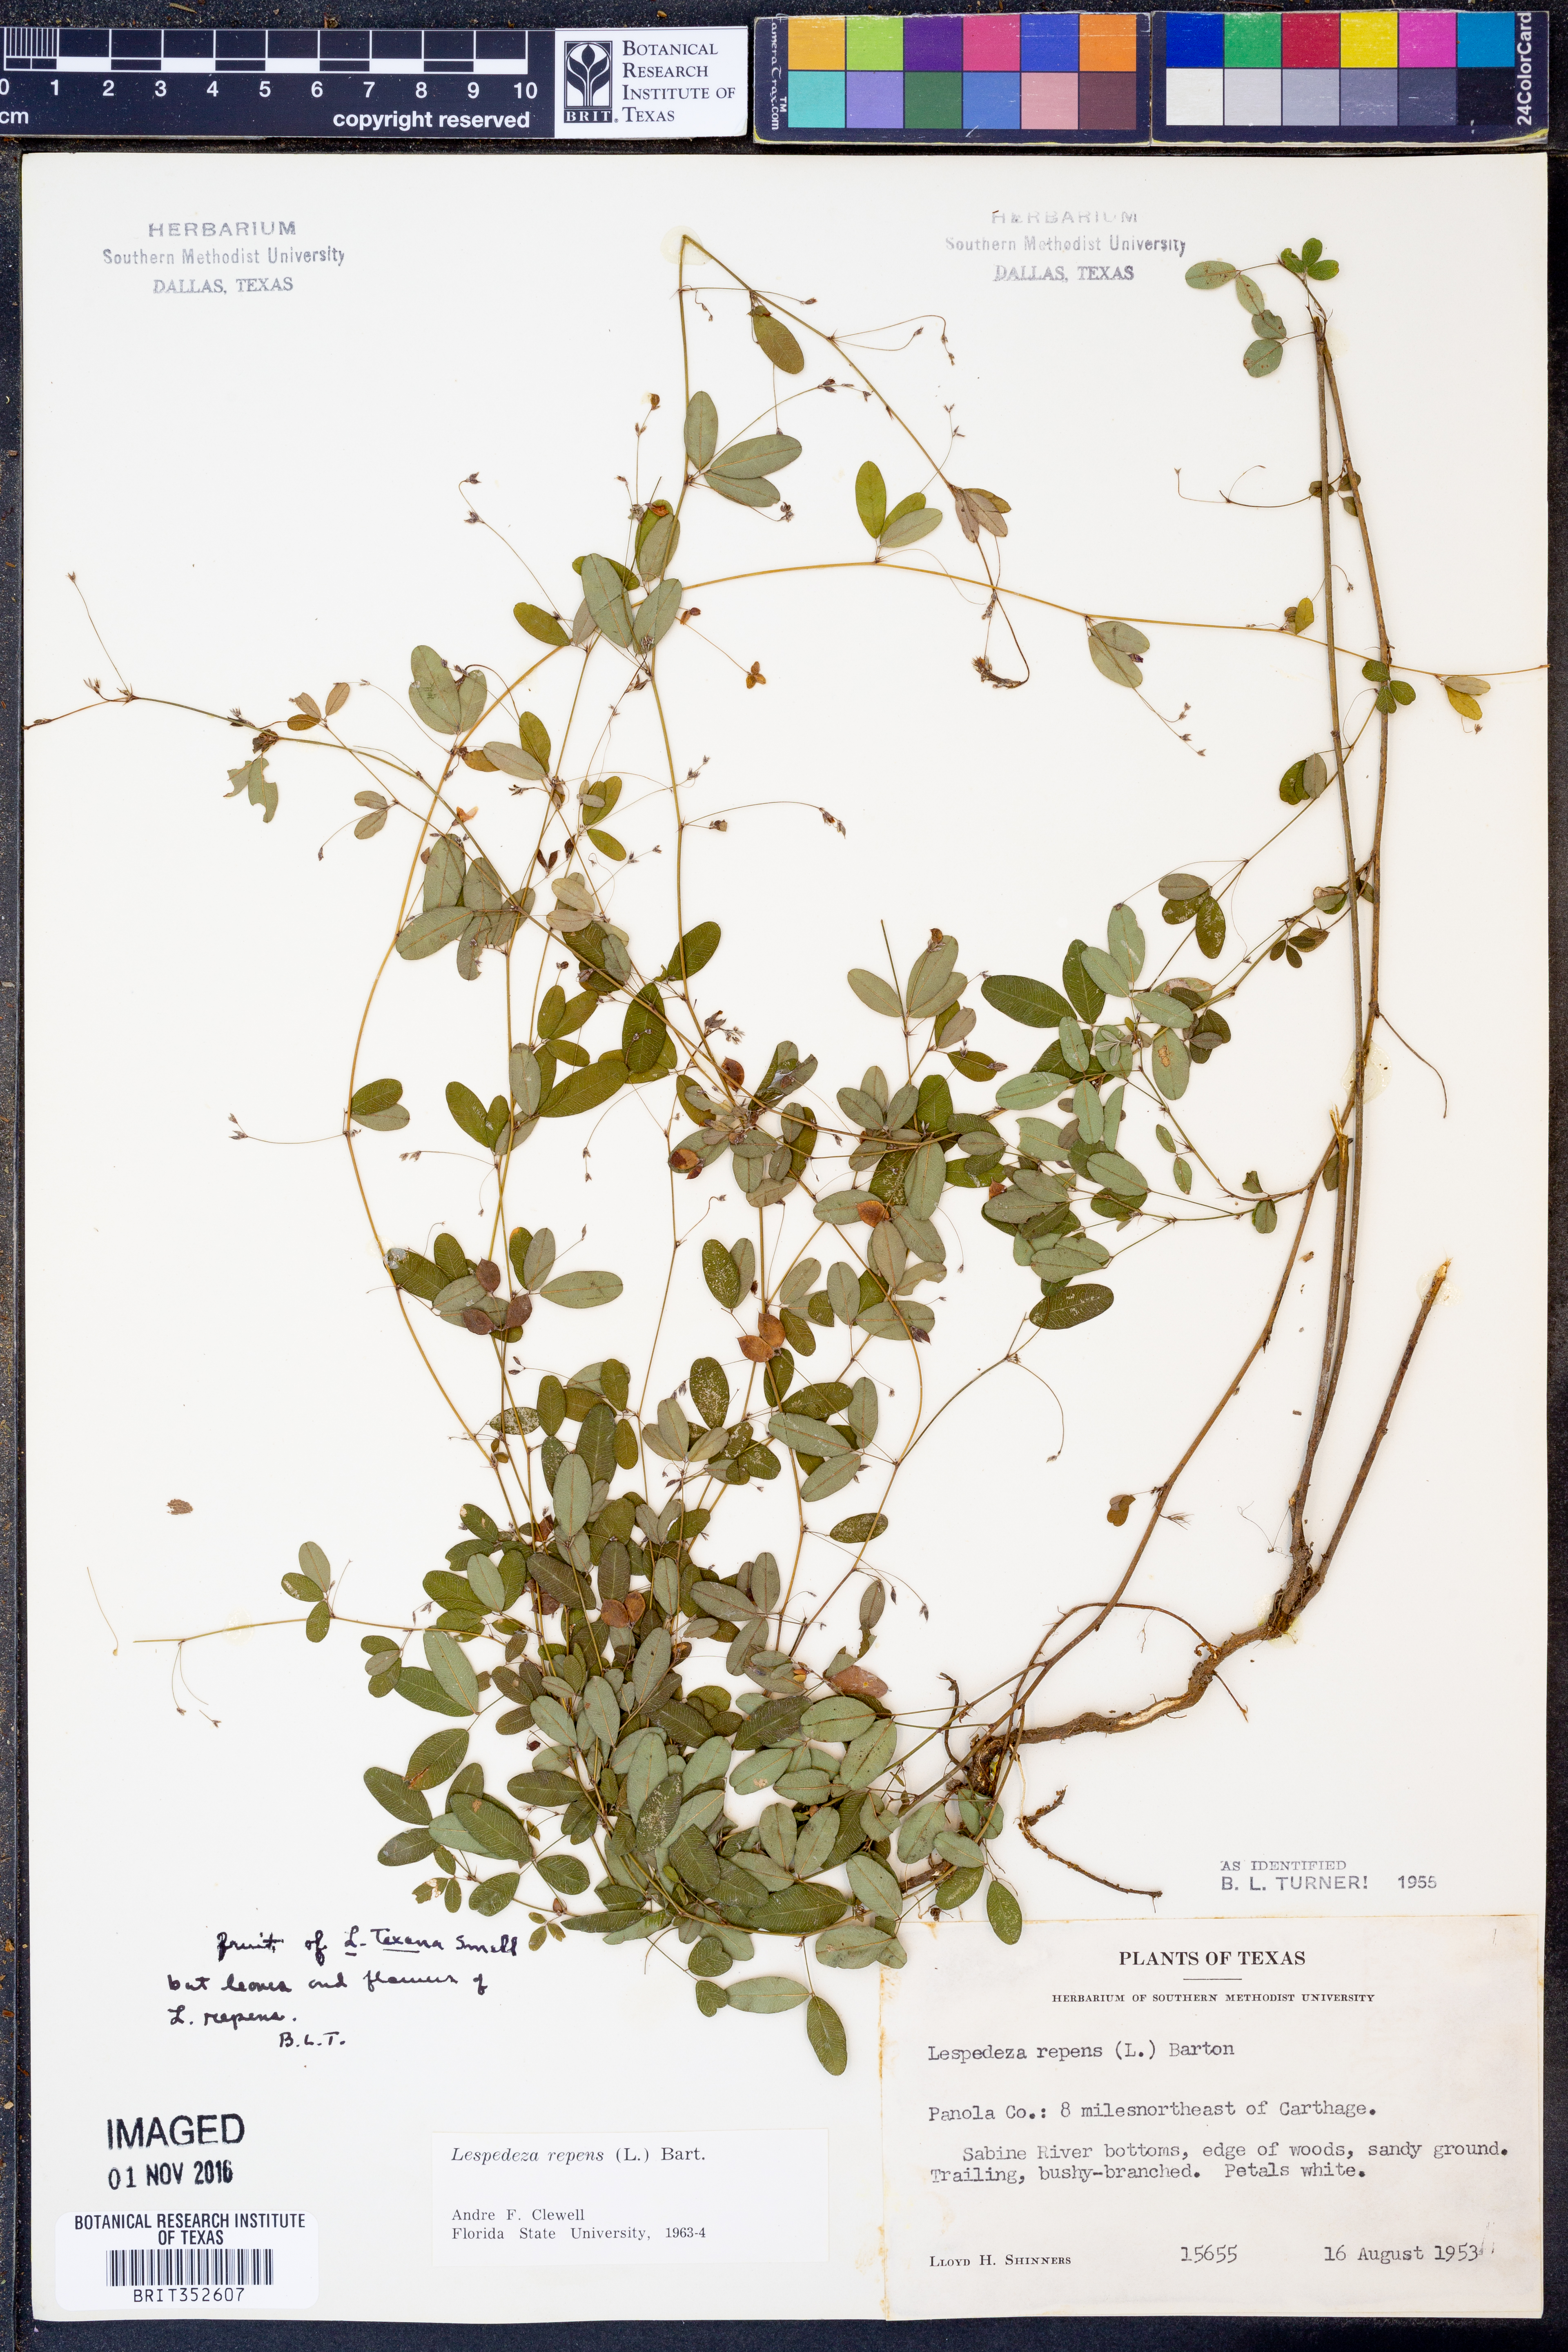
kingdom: Plantae
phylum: Tracheophyta
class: Magnoliopsida
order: Fabales
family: Fabaceae
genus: Lespedeza
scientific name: Lespedeza repens
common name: Creeping bush-clover
